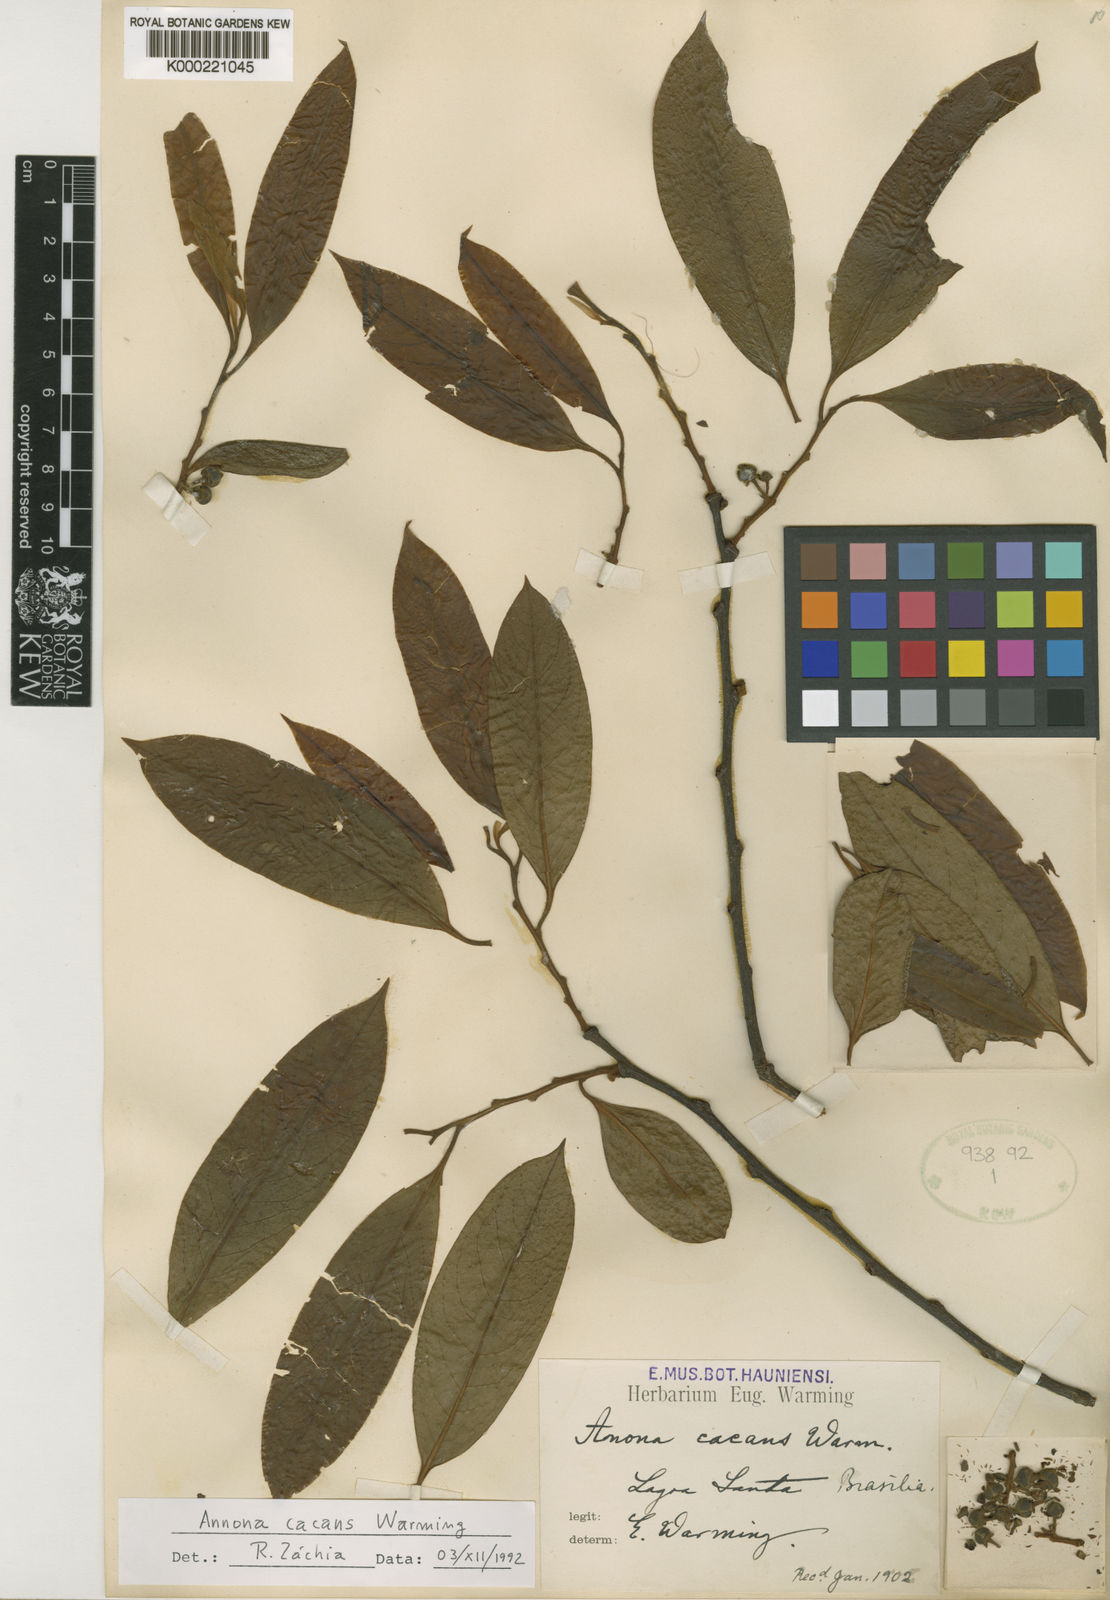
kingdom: Plantae
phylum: Tracheophyta
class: Magnoliopsida
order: Magnoliales
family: Annonaceae
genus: Annona
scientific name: Annona cacans
